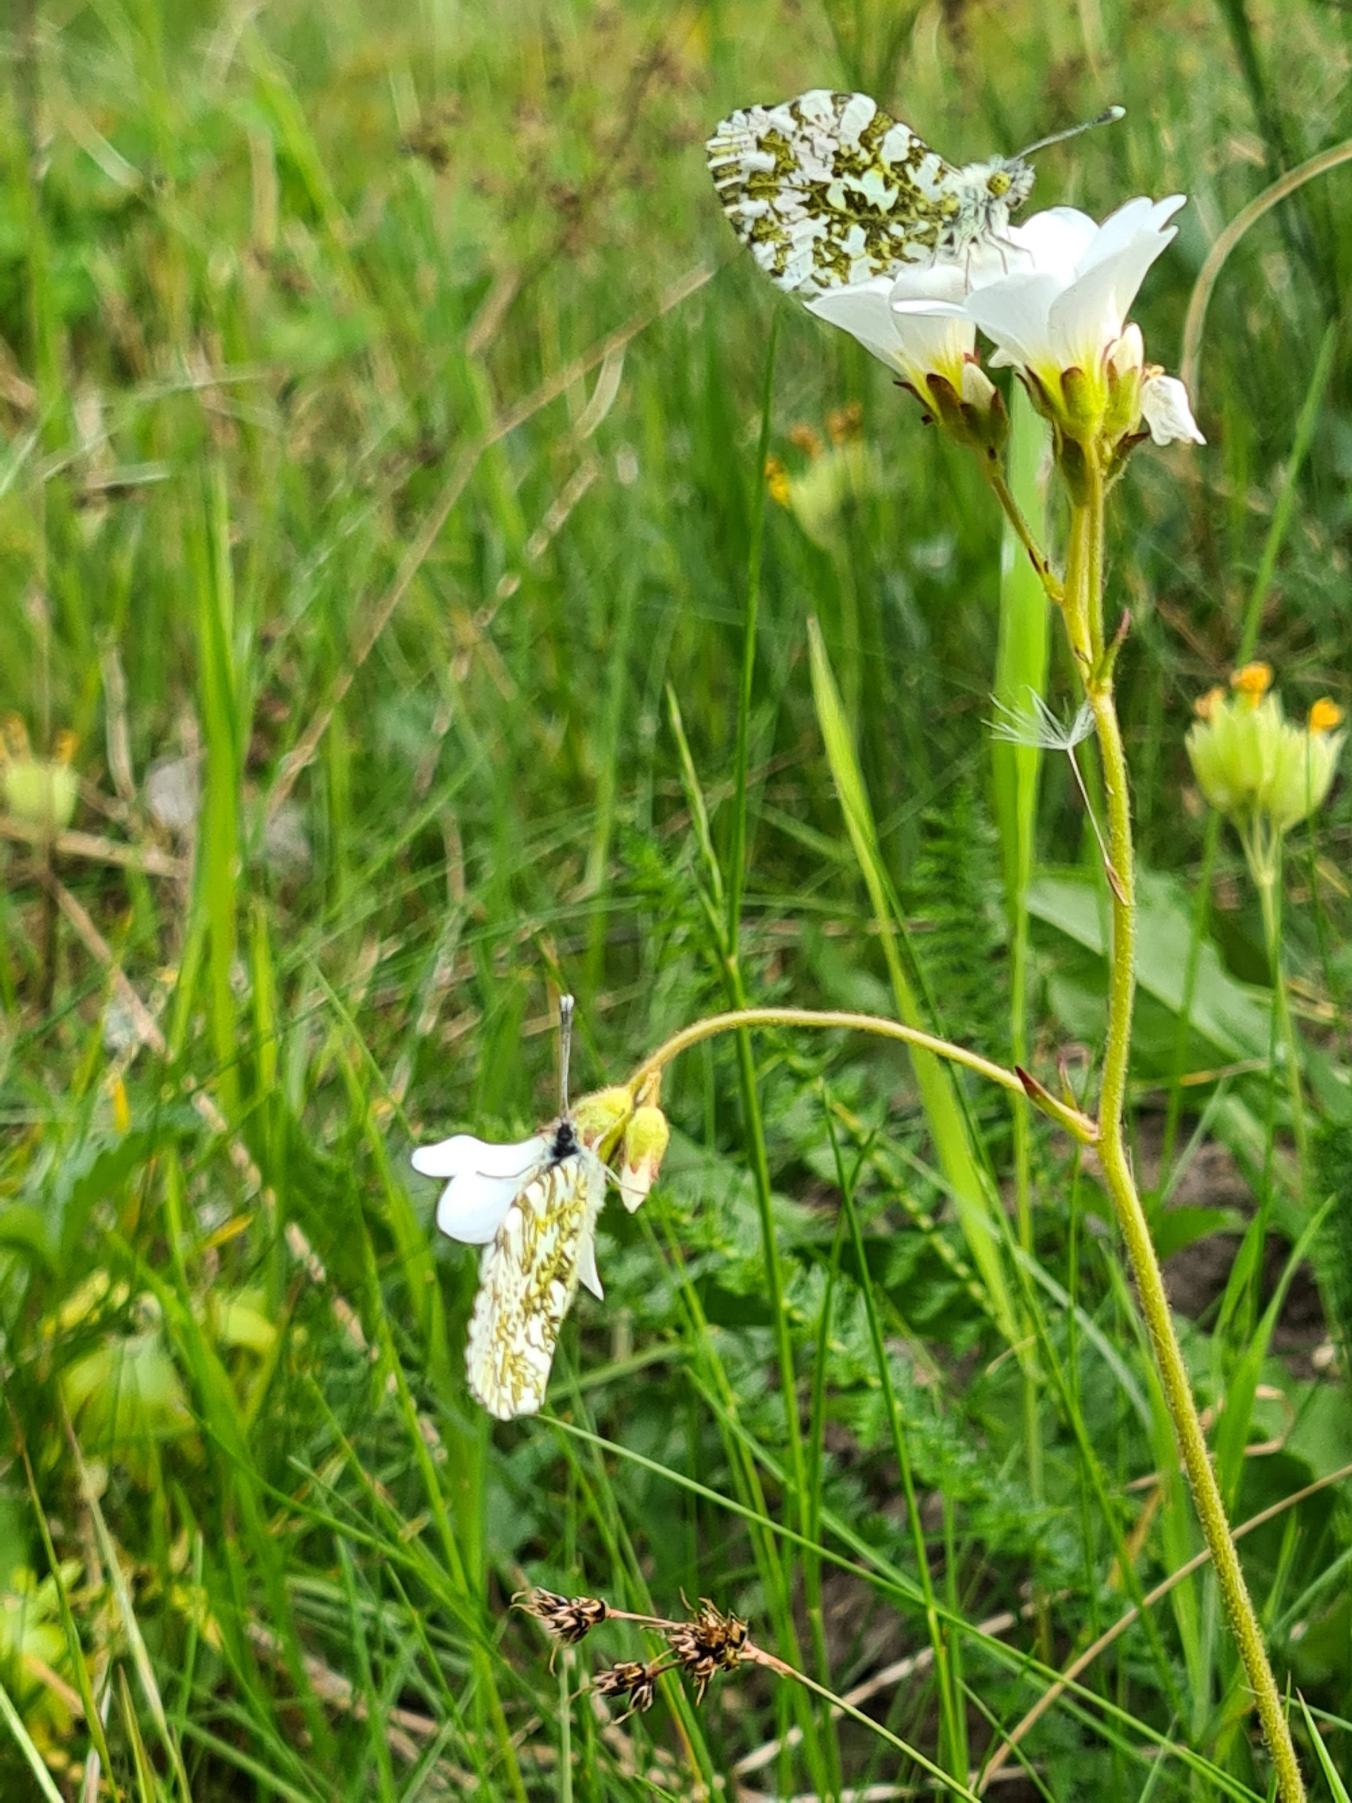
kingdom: Animalia
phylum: Arthropoda
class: Insecta
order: Lepidoptera
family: Pieridae
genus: Anthocharis
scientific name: Anthocharis cardamines
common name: Aurora
